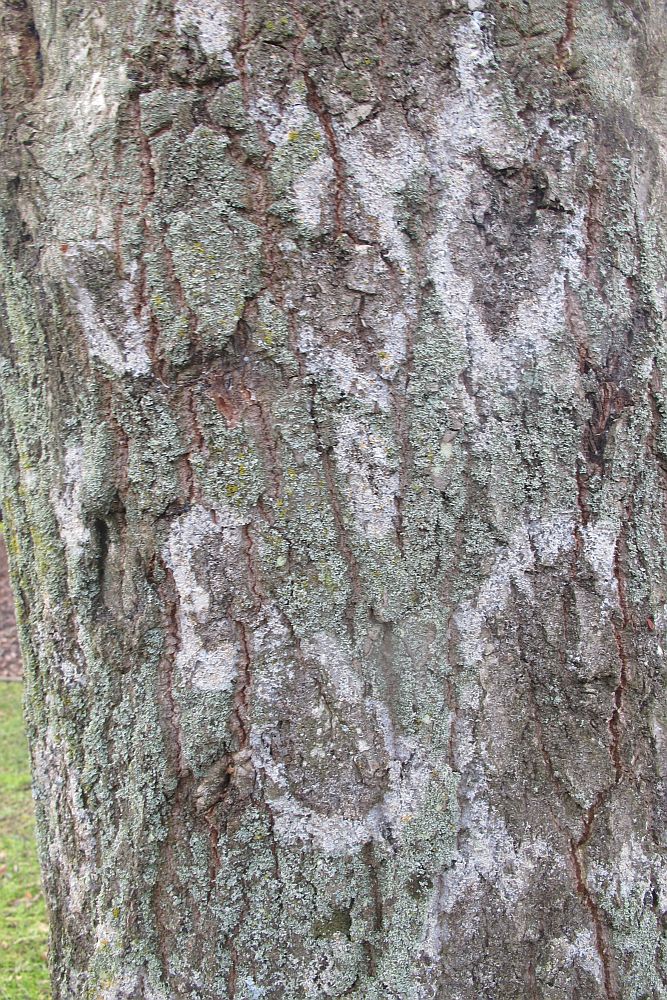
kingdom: Fungi
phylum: Basidiomycota
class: Agaricomycetes
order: Atheliales
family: Atheliaceae
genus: Athelia
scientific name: Athelia arachnoidea
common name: randet barkhinde
